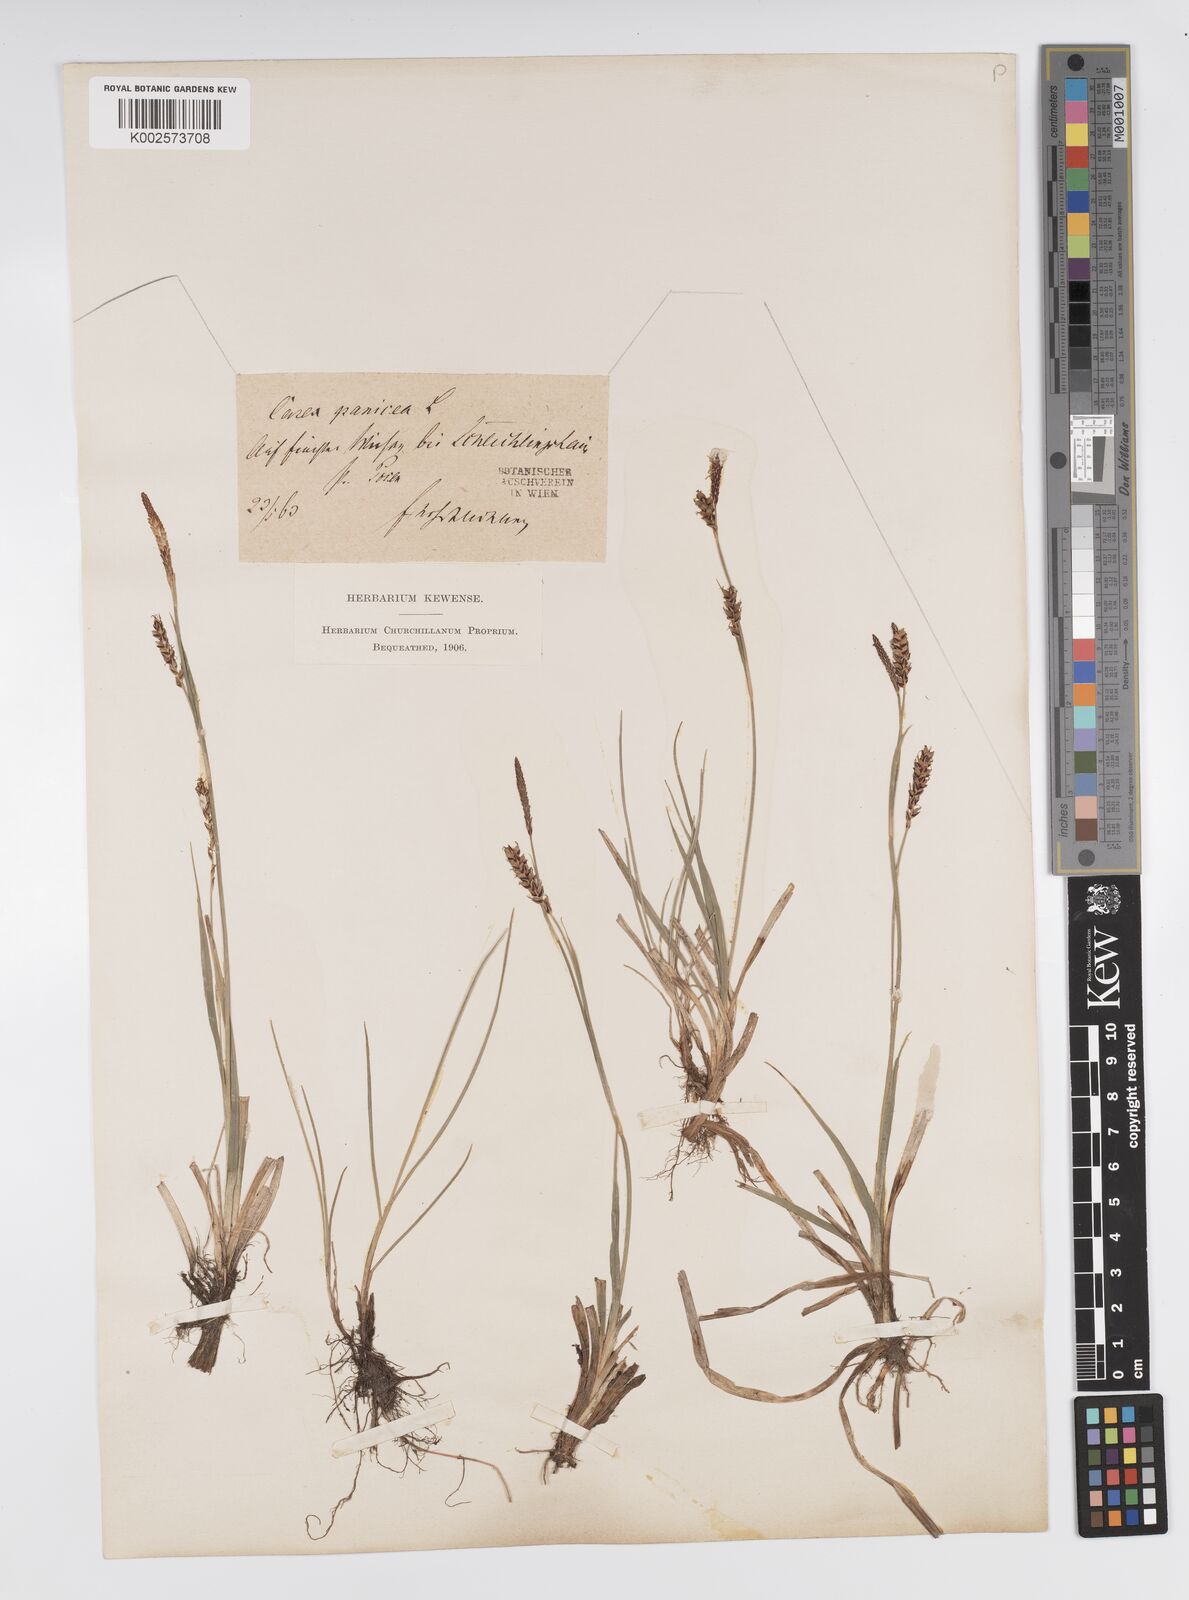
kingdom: Plantae
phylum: Tracheophyta
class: Liliopsida
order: Poales
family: Cyperaceae
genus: Carex
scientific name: Carex panicea
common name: Carnation sedge
